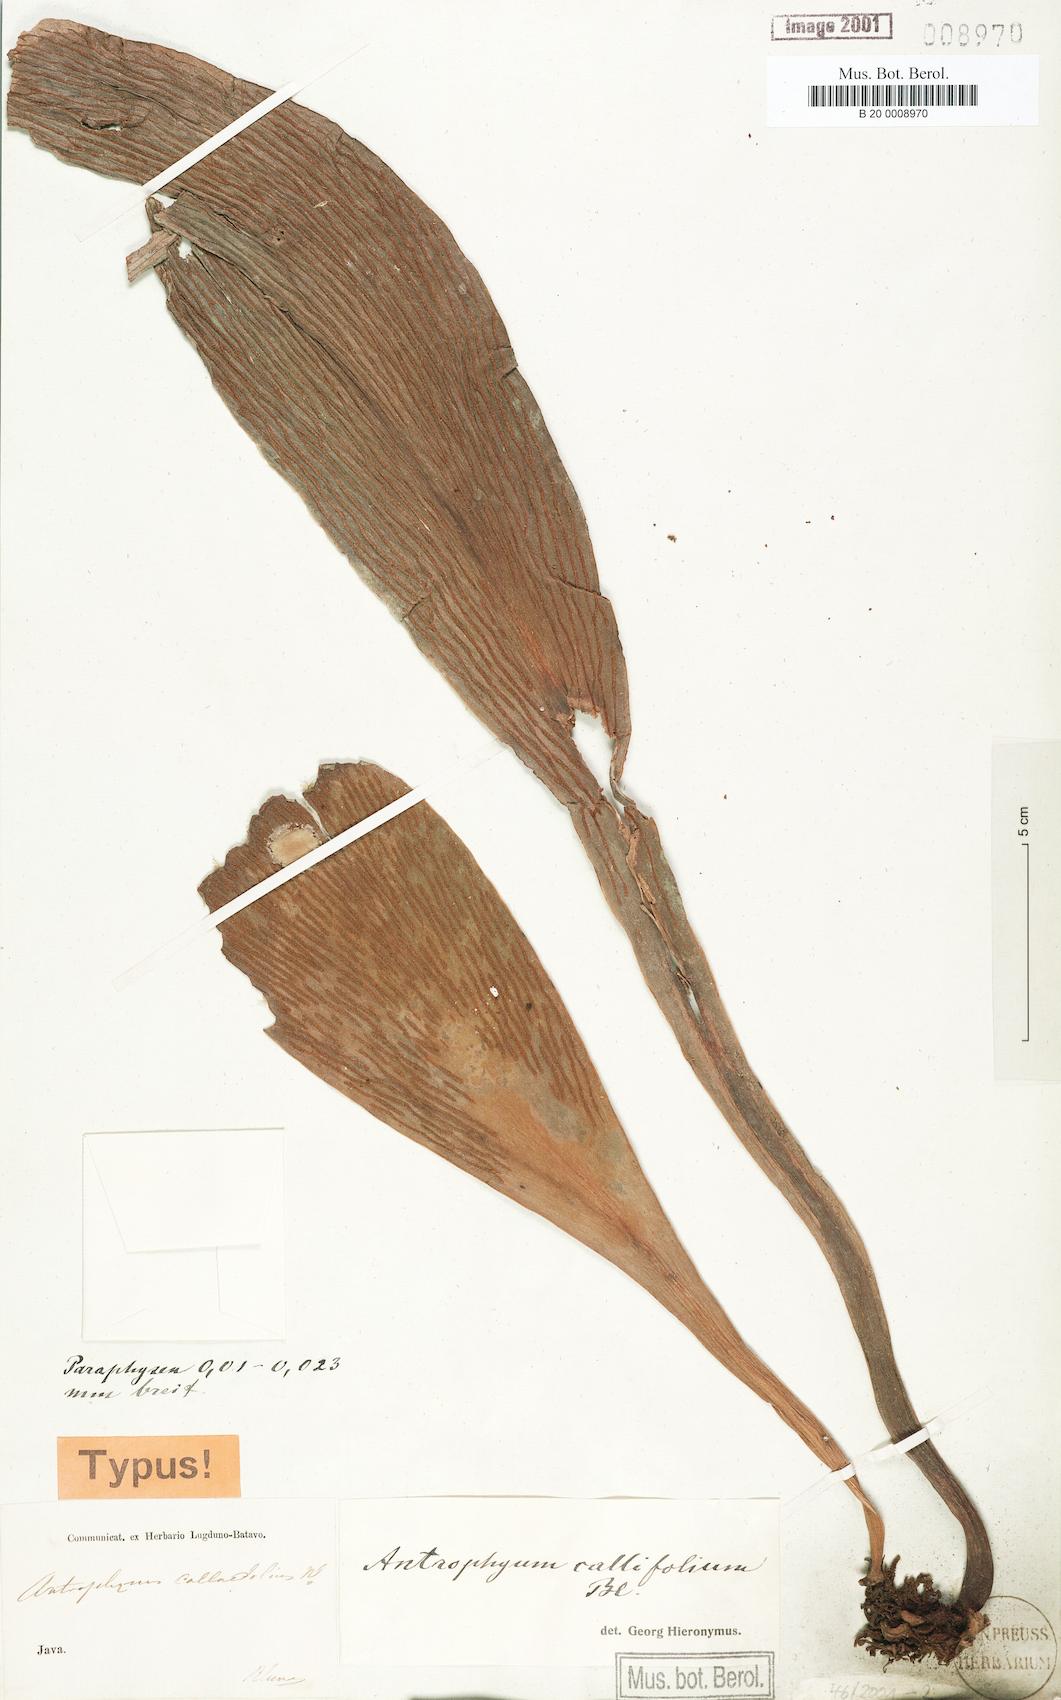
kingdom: Plantae
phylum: Tracheophyta
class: Polypodiopsida
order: Polypodiales
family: Pteridaceae
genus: Antrophyum
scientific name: Antrophyum callifolium
